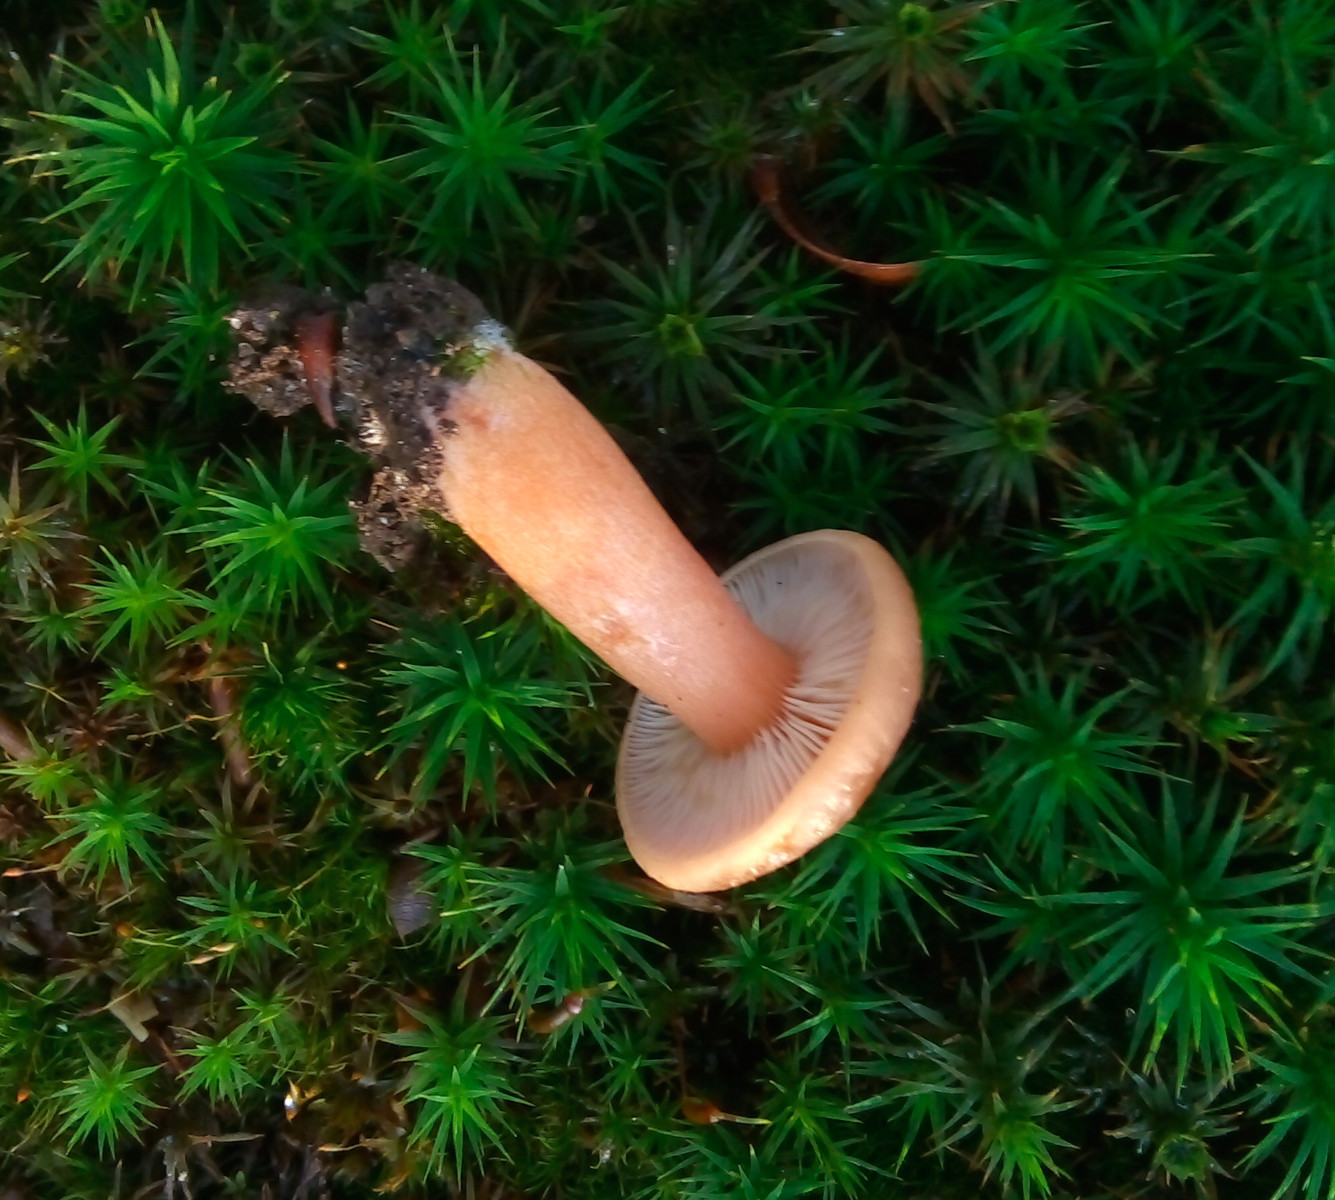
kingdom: Fungi
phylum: Basidiomycota
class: Agaricomycetes
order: Russulales
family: Russulaceae
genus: Lactarius
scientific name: Lactarius subdulcis
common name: sødlig mælkehat
